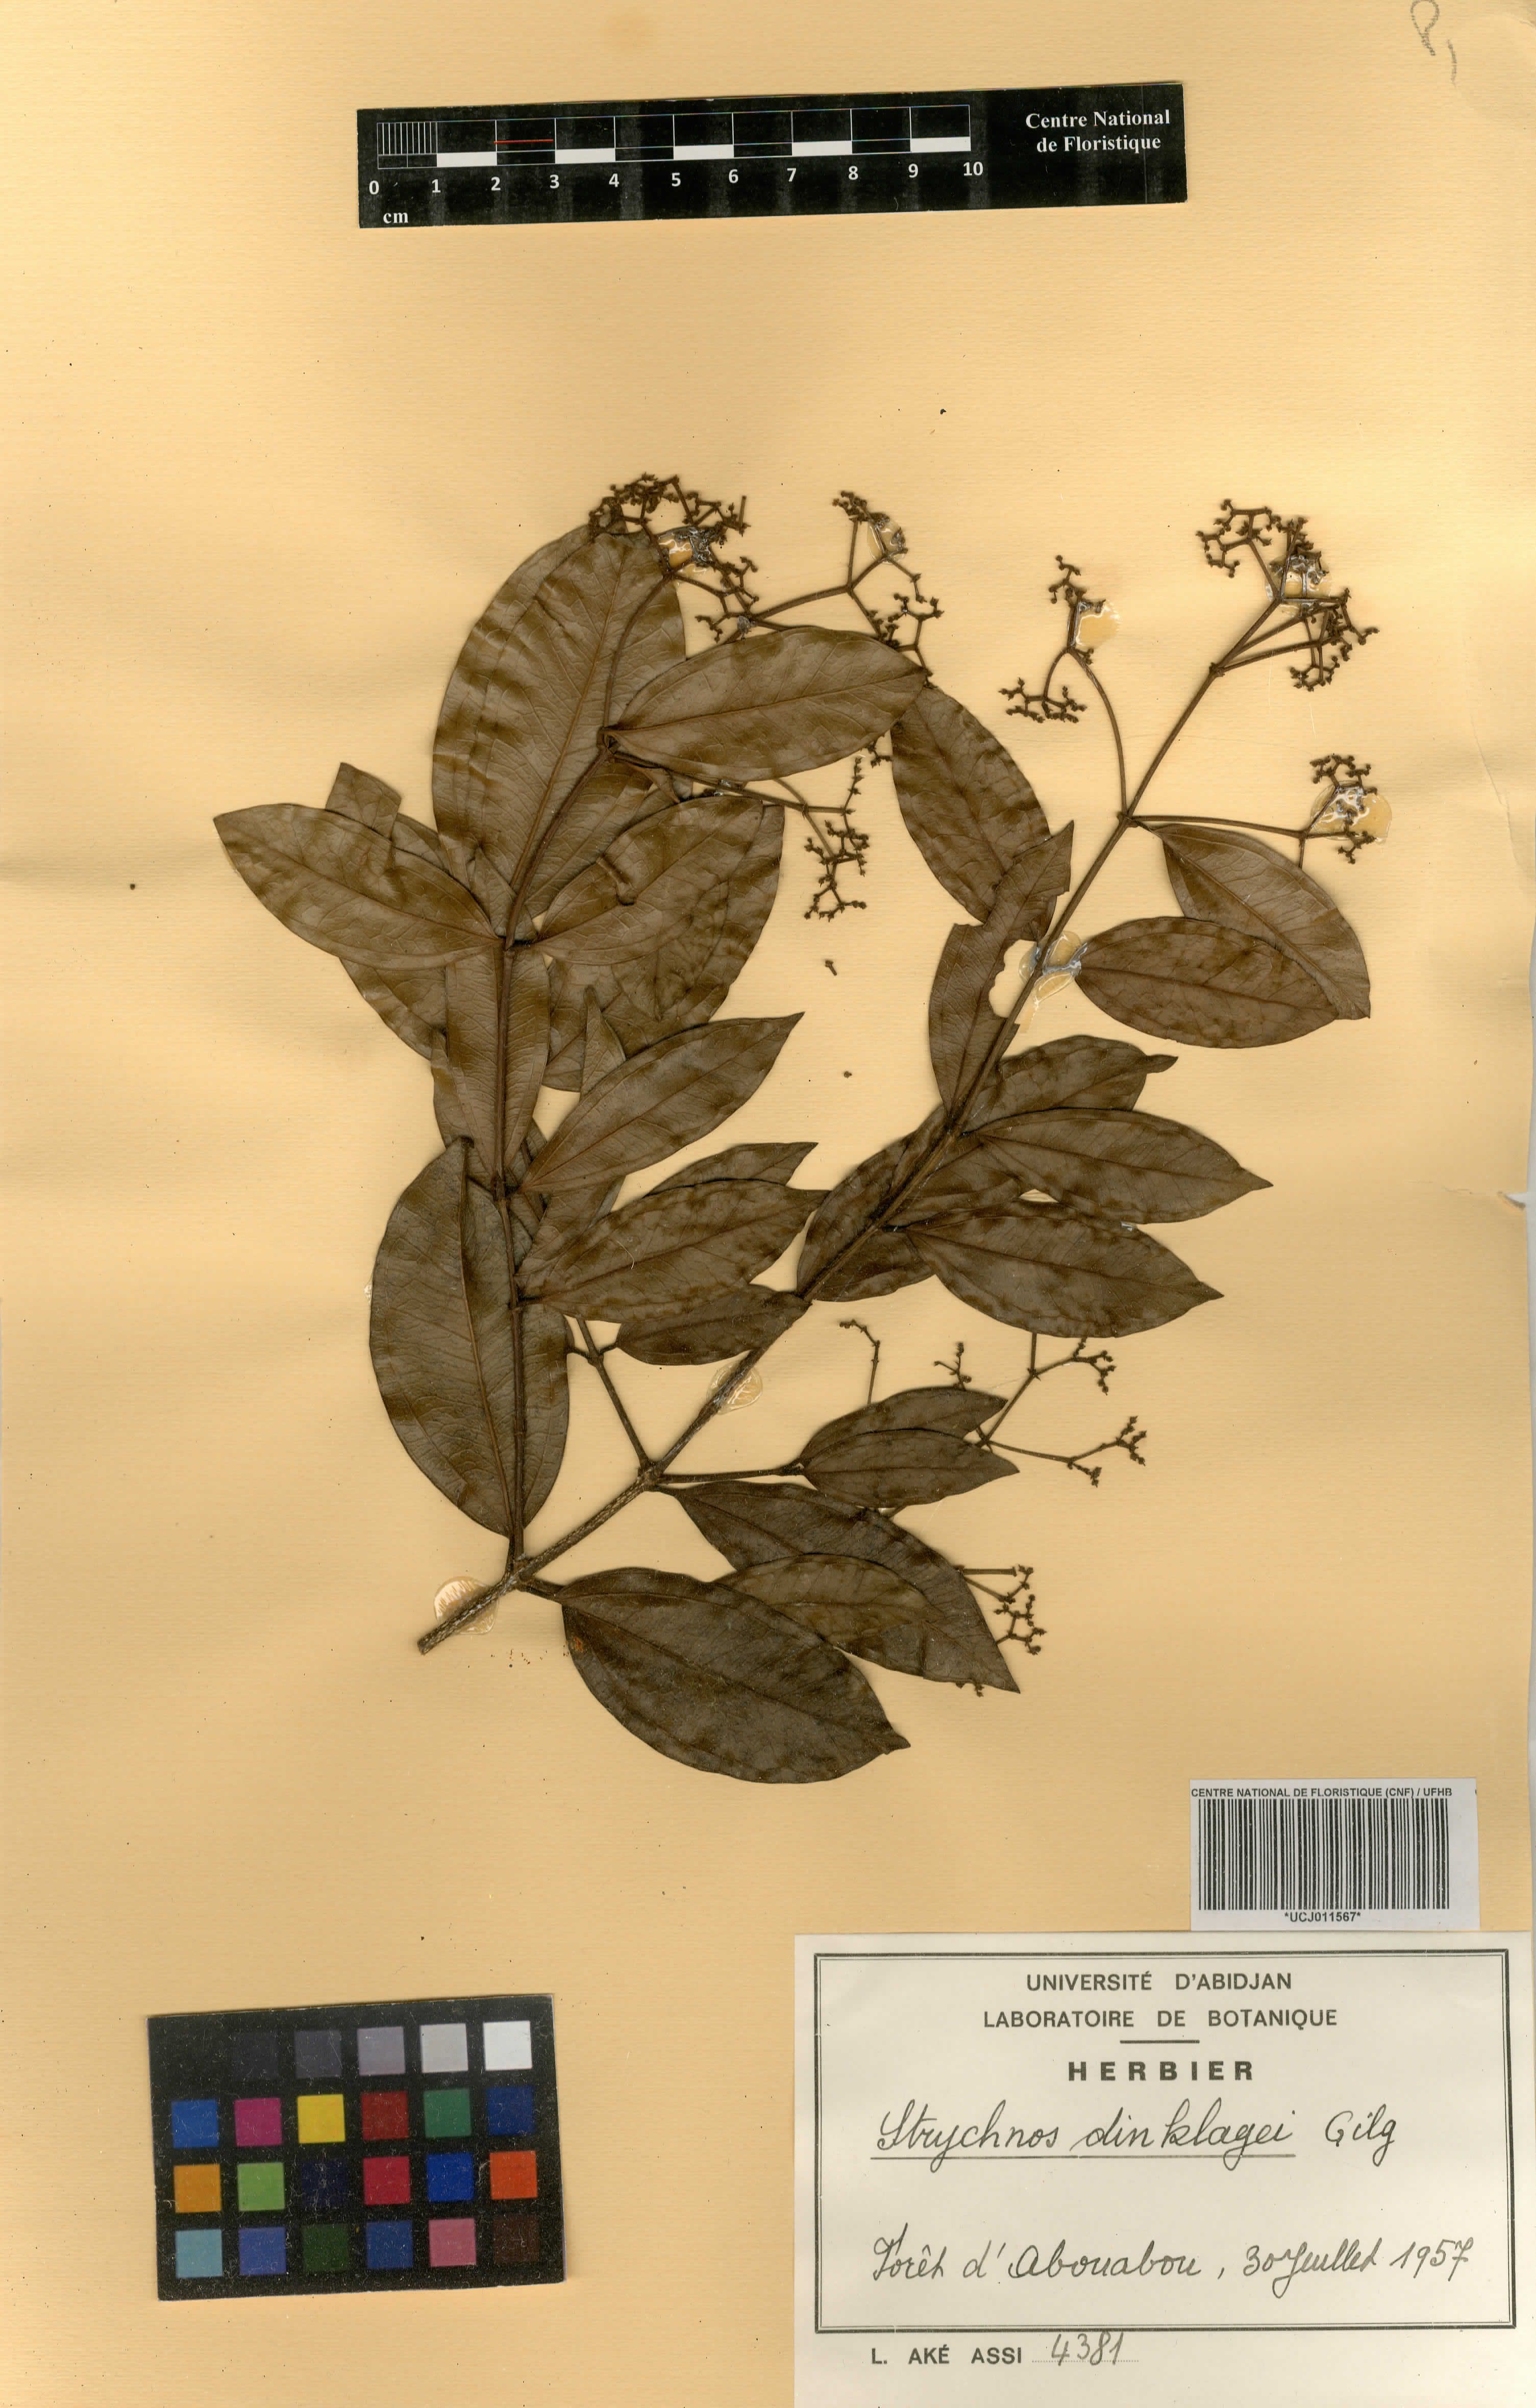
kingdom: Plantae
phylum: Tracheophyta
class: Magnoliopsida
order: Gentianales
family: Loganiaceae
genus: Strychnos
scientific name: Strychnos dinklagei
